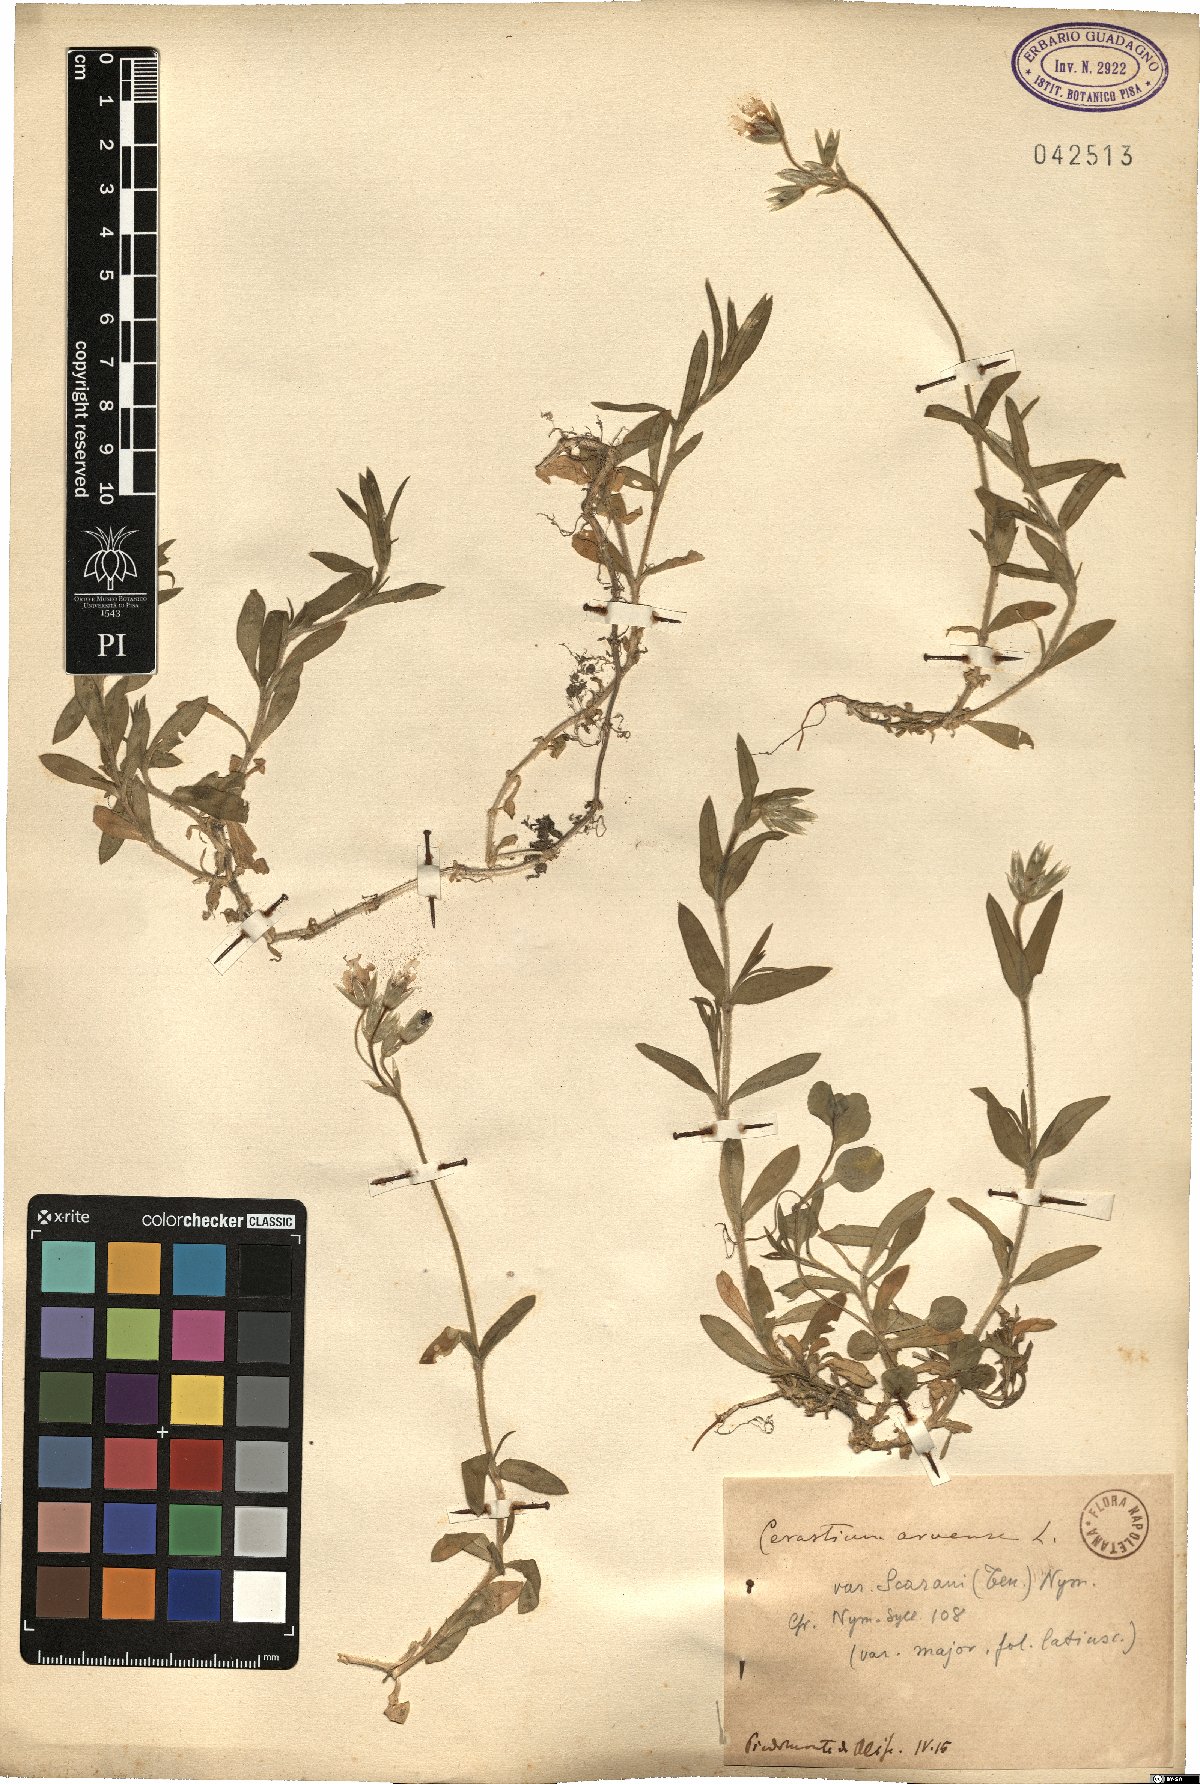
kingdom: Plantae
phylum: Tracheophyta
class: Magnoliopsida
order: Caryophyllales
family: Caryophyllaceae
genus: Cerastium
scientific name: Cerastium arvense
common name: Field mouse-ear
